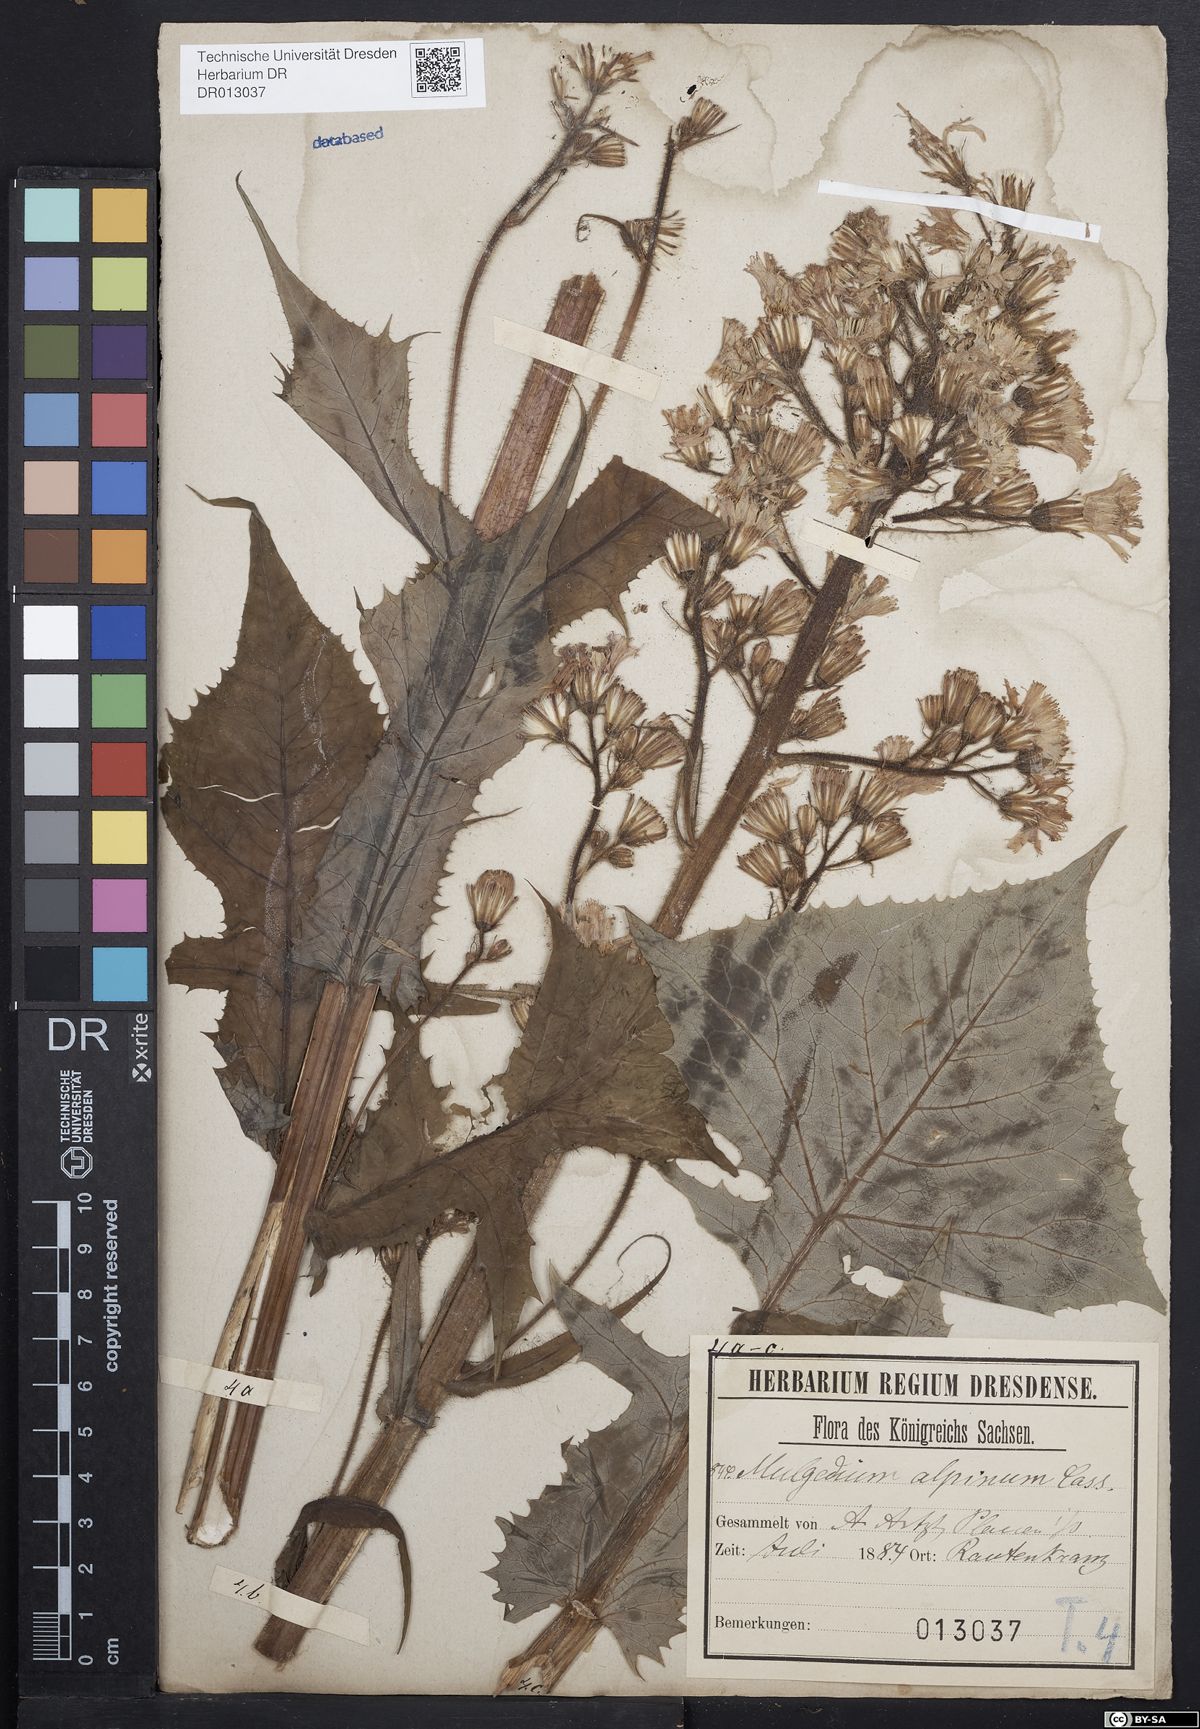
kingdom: Plantae
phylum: Tracheophyta
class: Magnoliopsida
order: Asterales
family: Asteraceae
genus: Cicerbita
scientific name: Cicerbita alpina
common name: Alpine blue-sow-thistle
